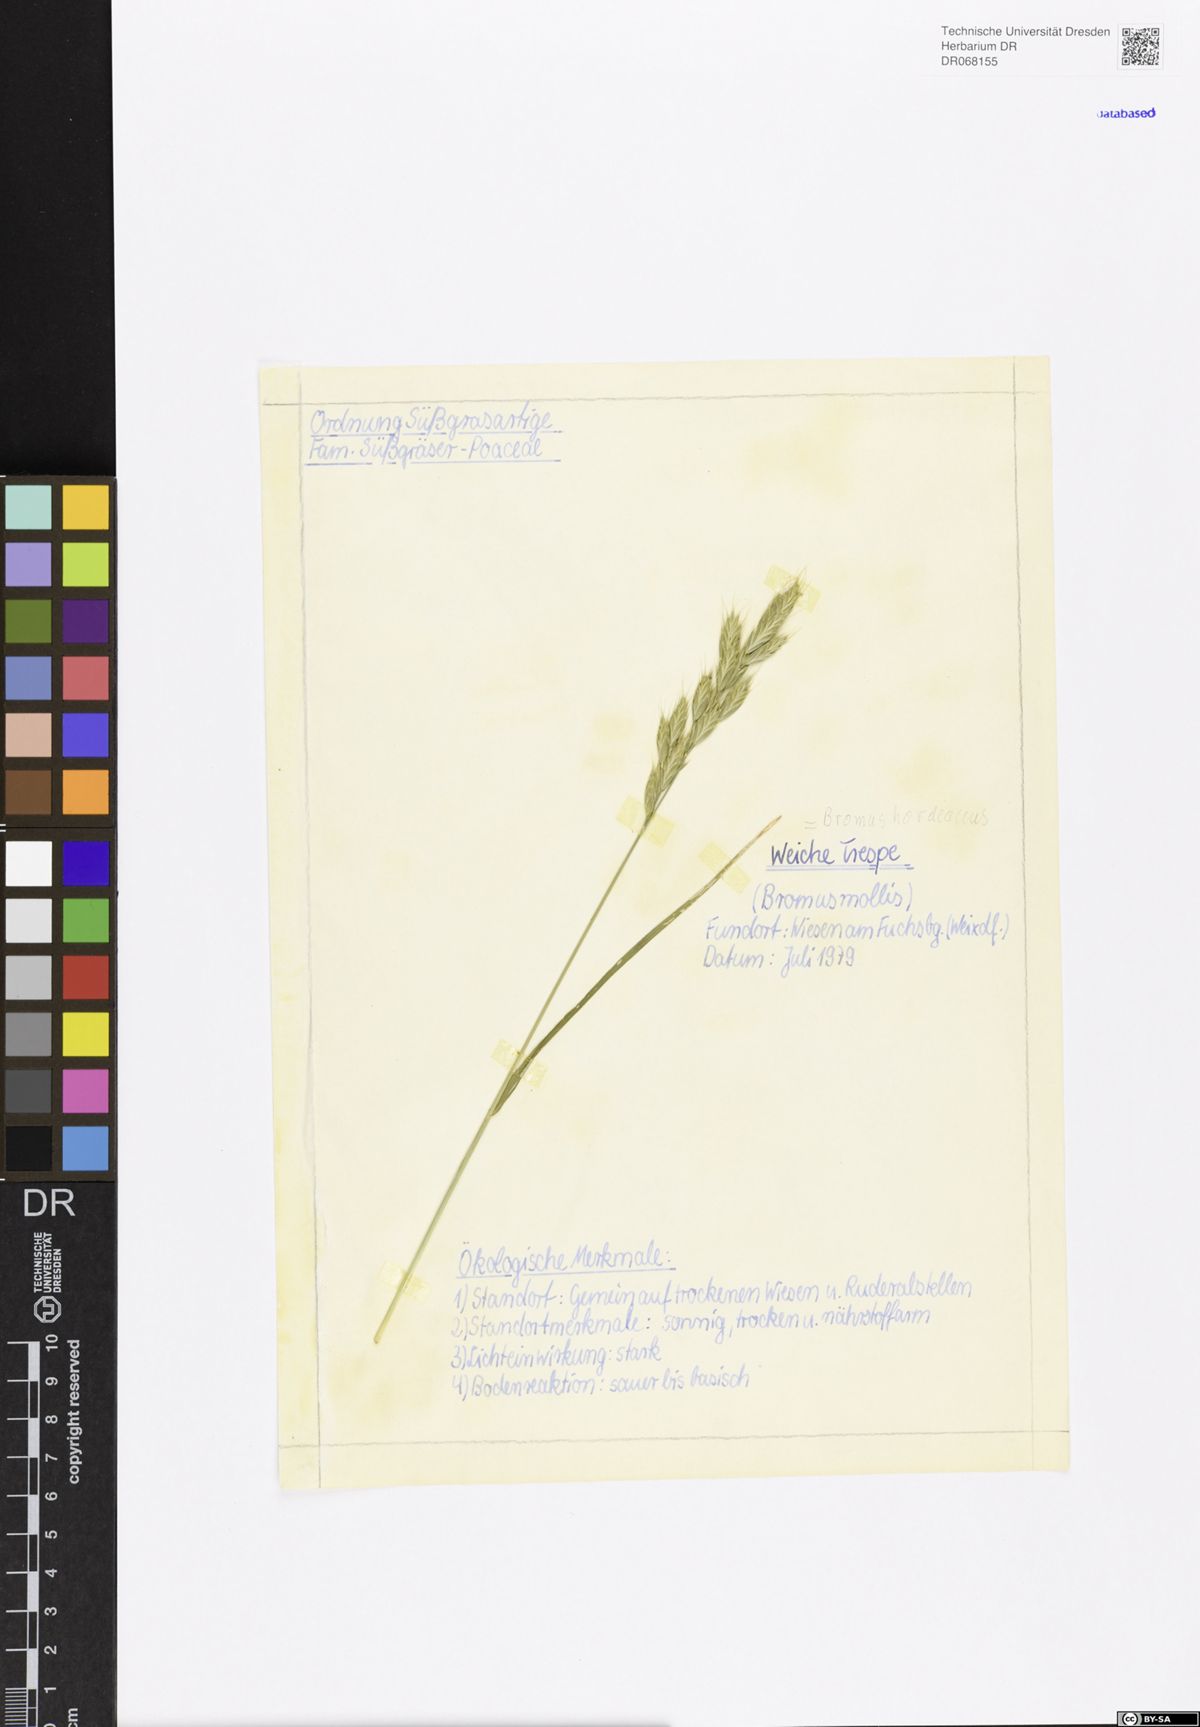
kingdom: Plantae
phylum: Tracheophyta
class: Liliopsida
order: Poales
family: Poaceae
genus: Bromus
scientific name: Bromus hordeaceus
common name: Soft brome
